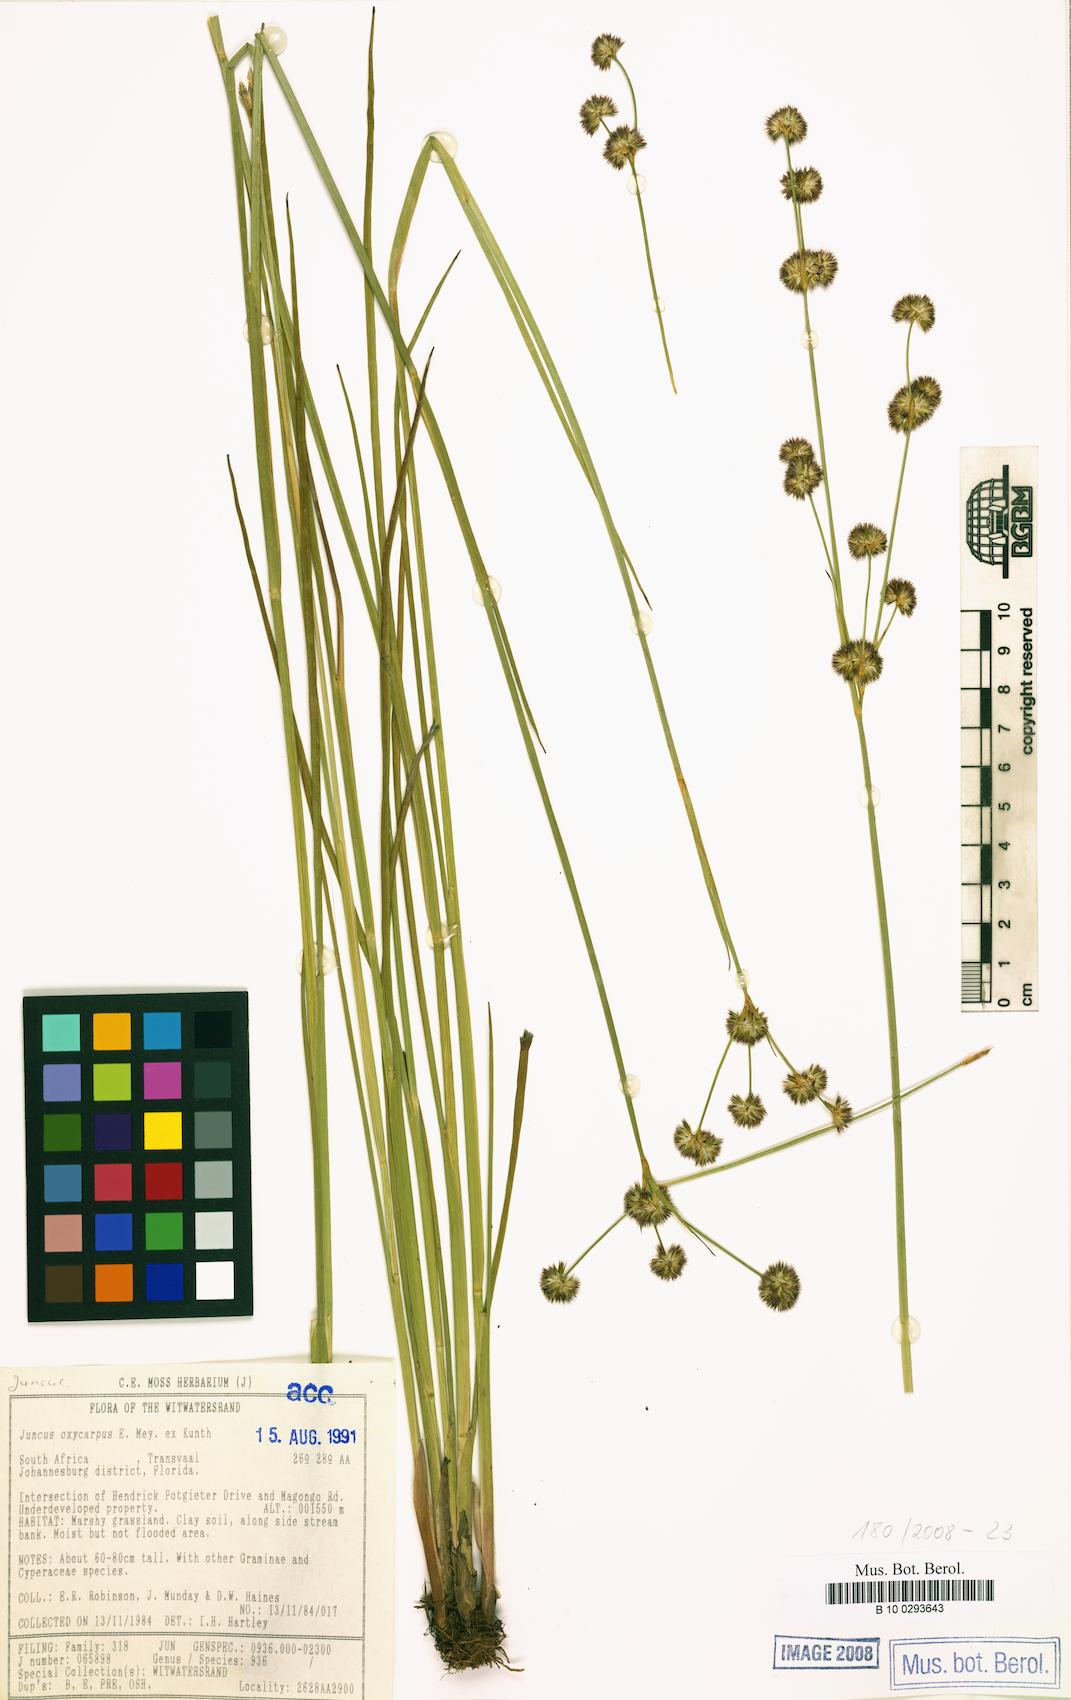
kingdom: Plantae
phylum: Tracheophyta
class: Liliopsida
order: Poales
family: Juncaceae
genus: Juncus
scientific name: Juncus oxycarpus
